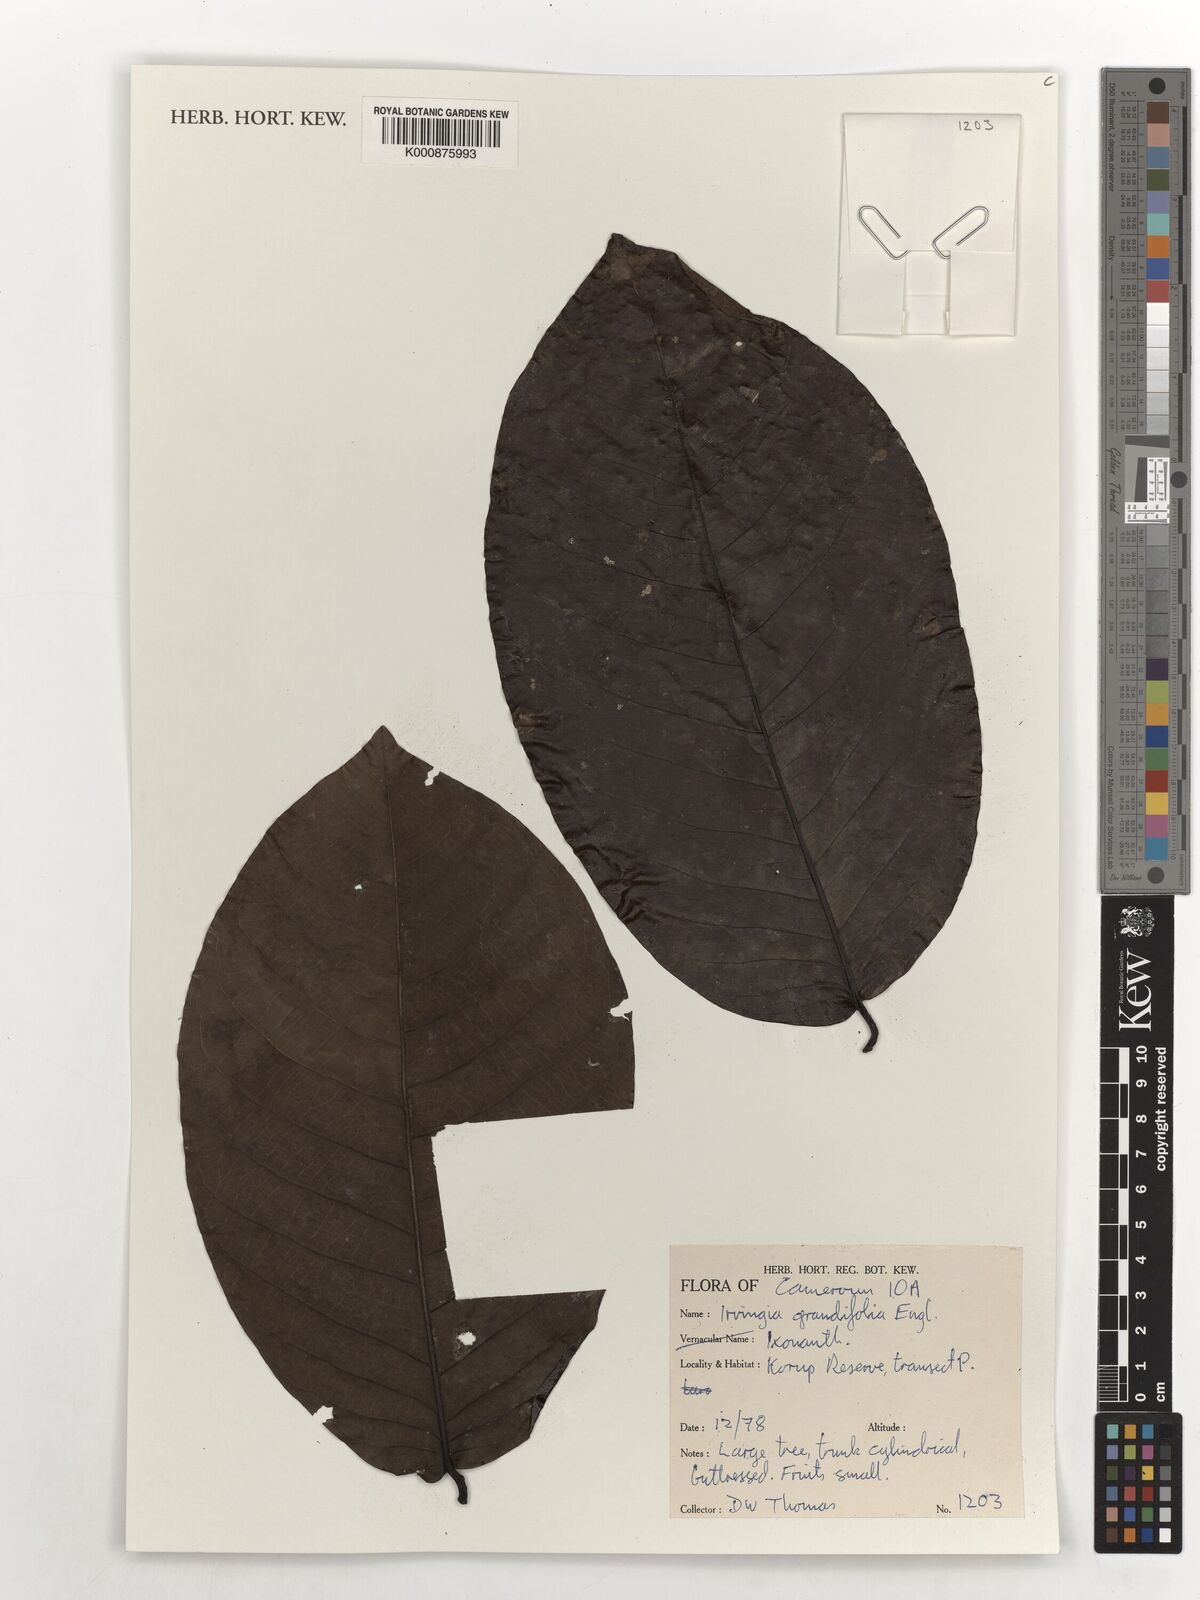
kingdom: Plantae
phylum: Tracheophyta
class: Magnoliopsida
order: Malpighiales
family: Irvingiaceae
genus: Irvingia
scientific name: Irvingia grandifolia
